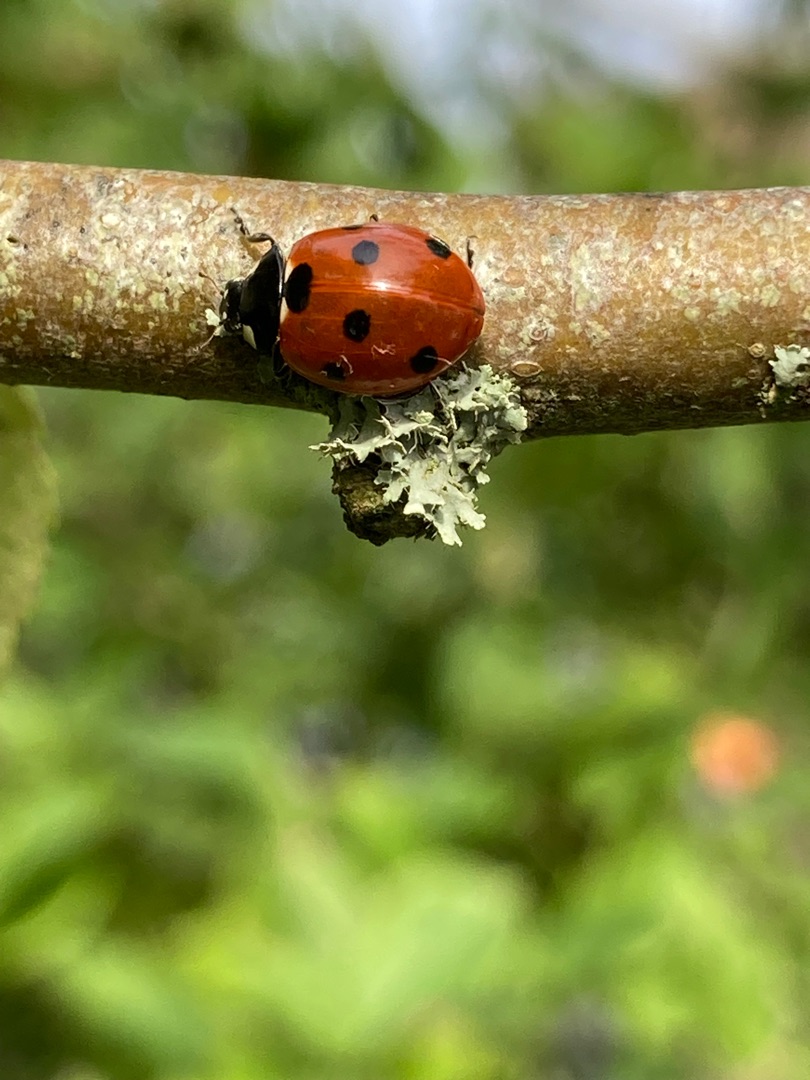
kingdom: Animalia
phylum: Arthropoda
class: Insecta
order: Coleoptera
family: Coccinellidae
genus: Coccinella
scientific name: Coccinella septempunctata
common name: Syvplettet mariehøne
